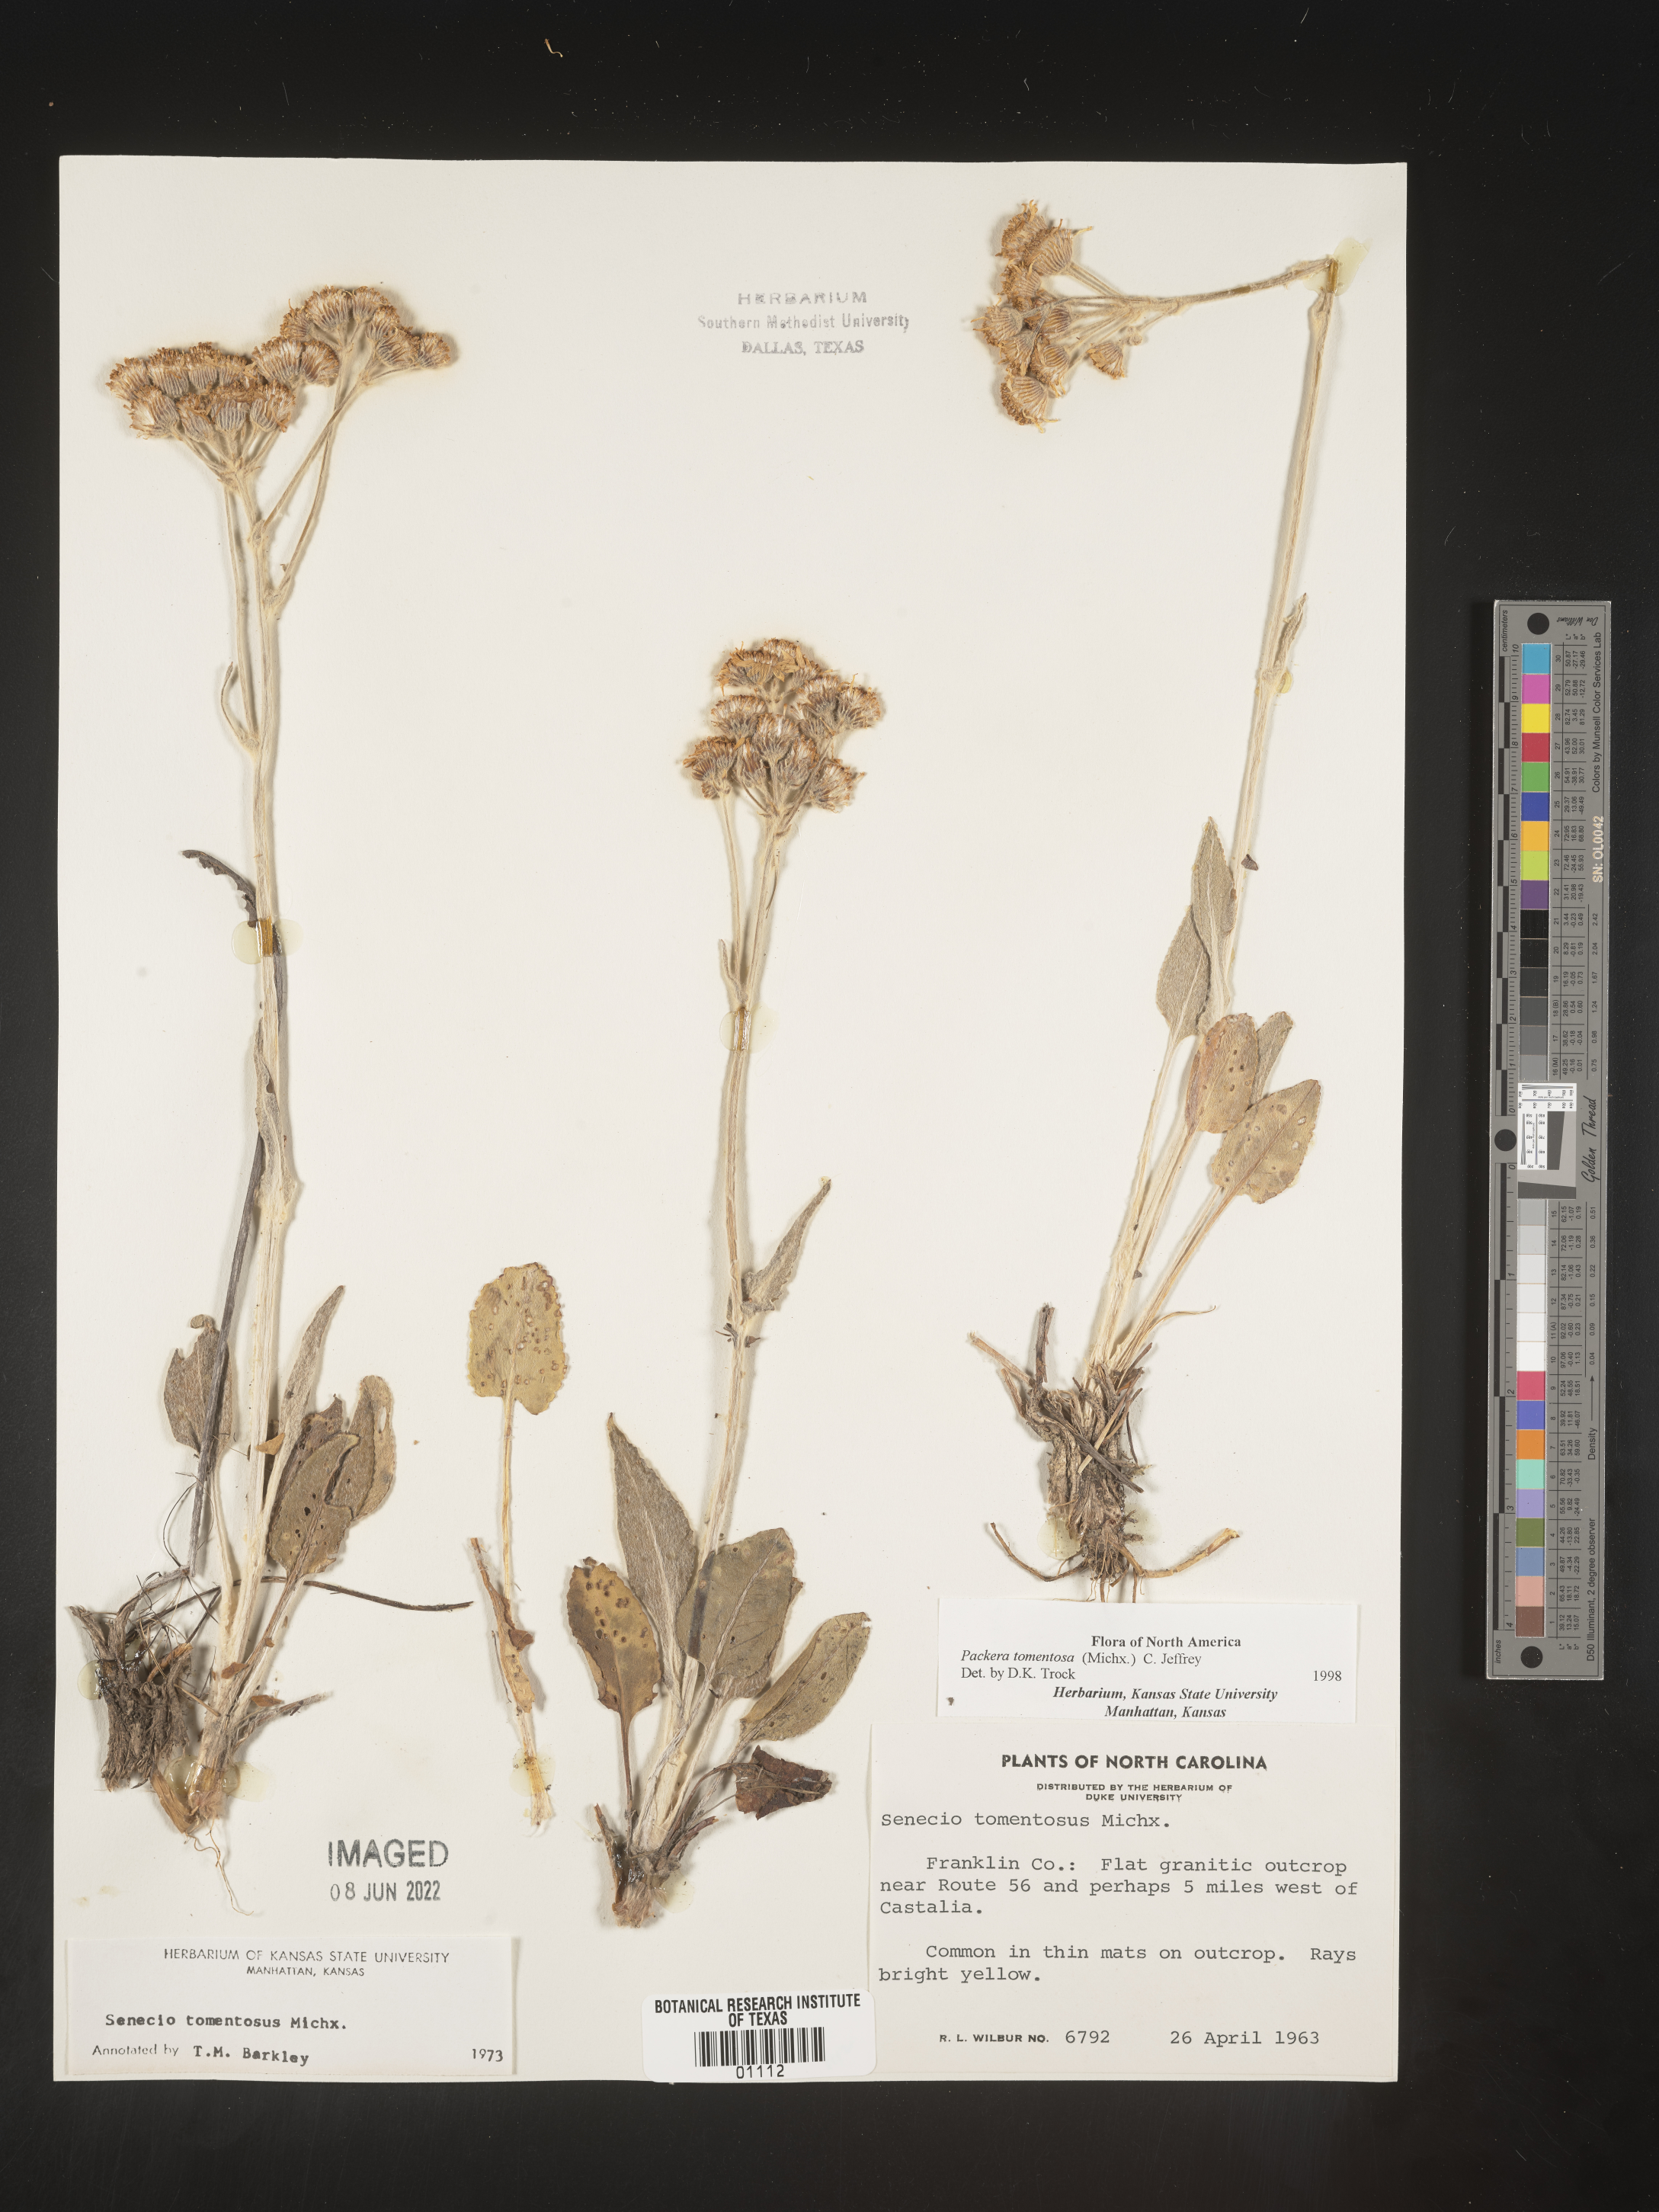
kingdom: Plantae
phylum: Tracheophyta
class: Magnoliopsida
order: Asterales
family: Asteraceae
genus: Packera
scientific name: Packera dubia
